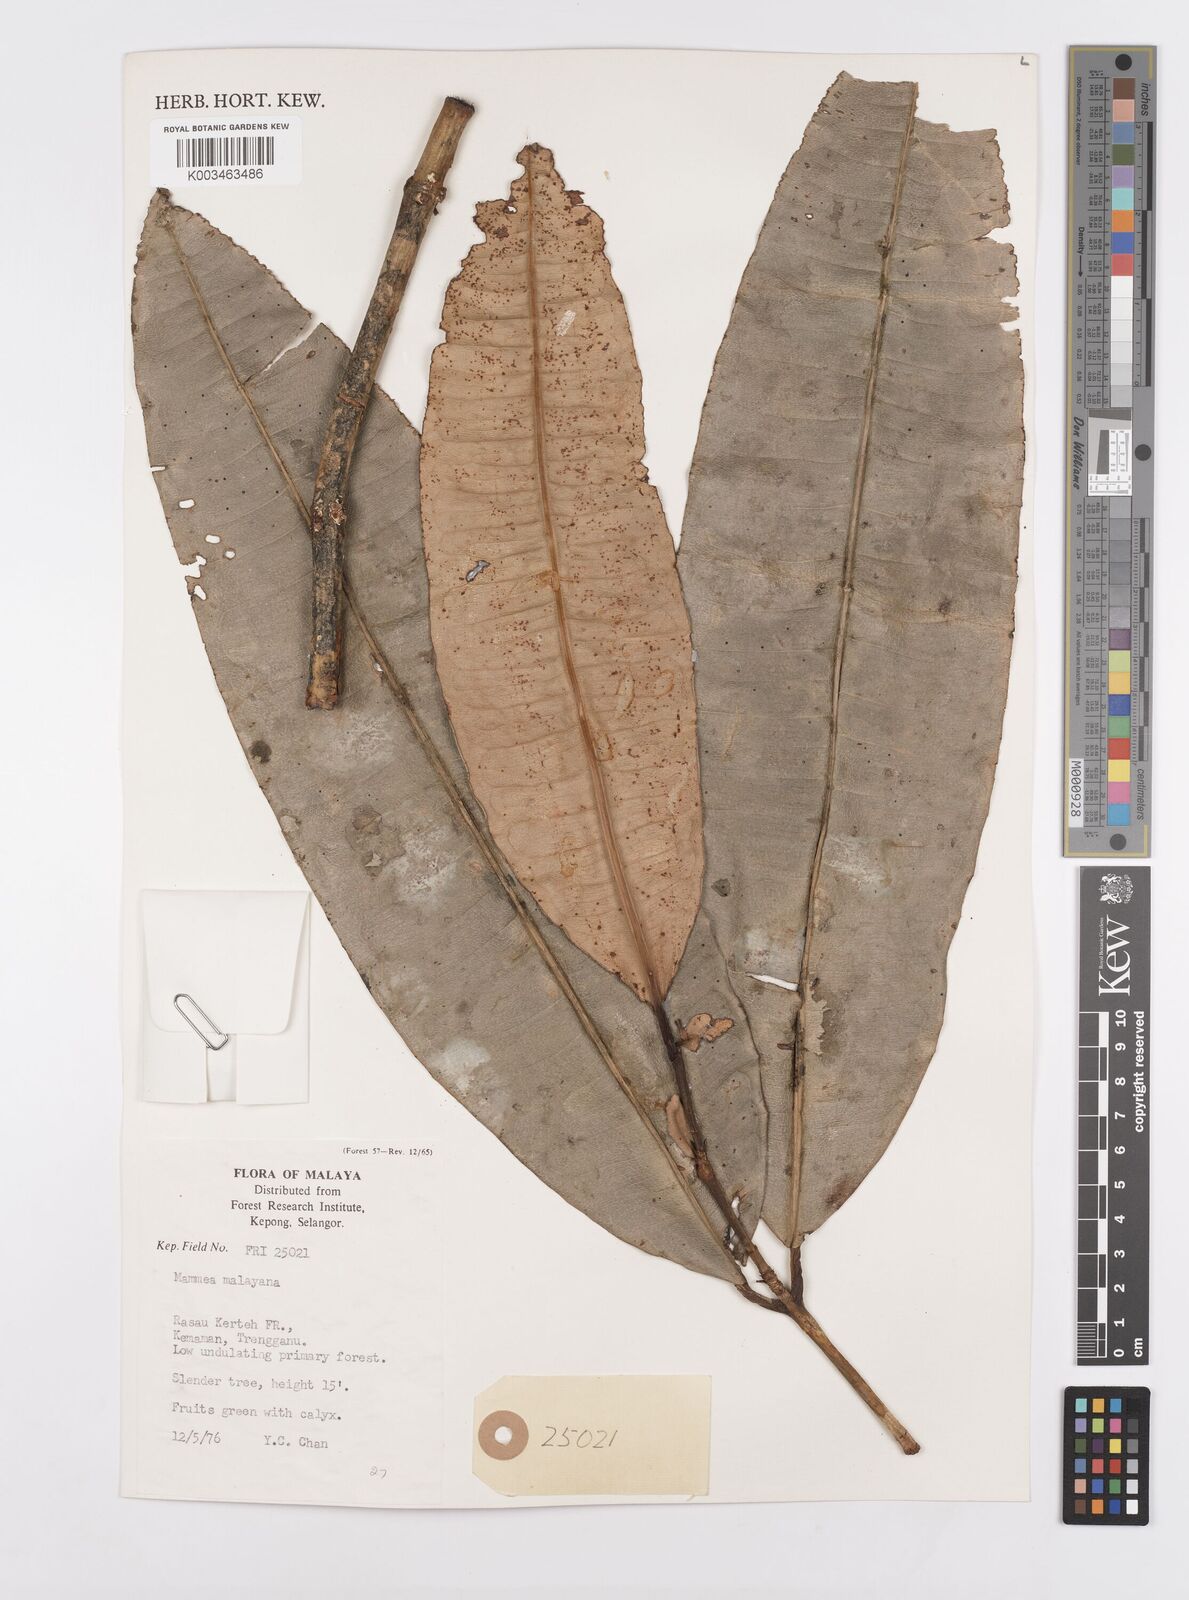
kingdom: Plantae
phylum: Tracheophyta
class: Magnoliopsida
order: Malpighiales
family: Calophyllaceae
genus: Mammea
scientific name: Mammea malayana
